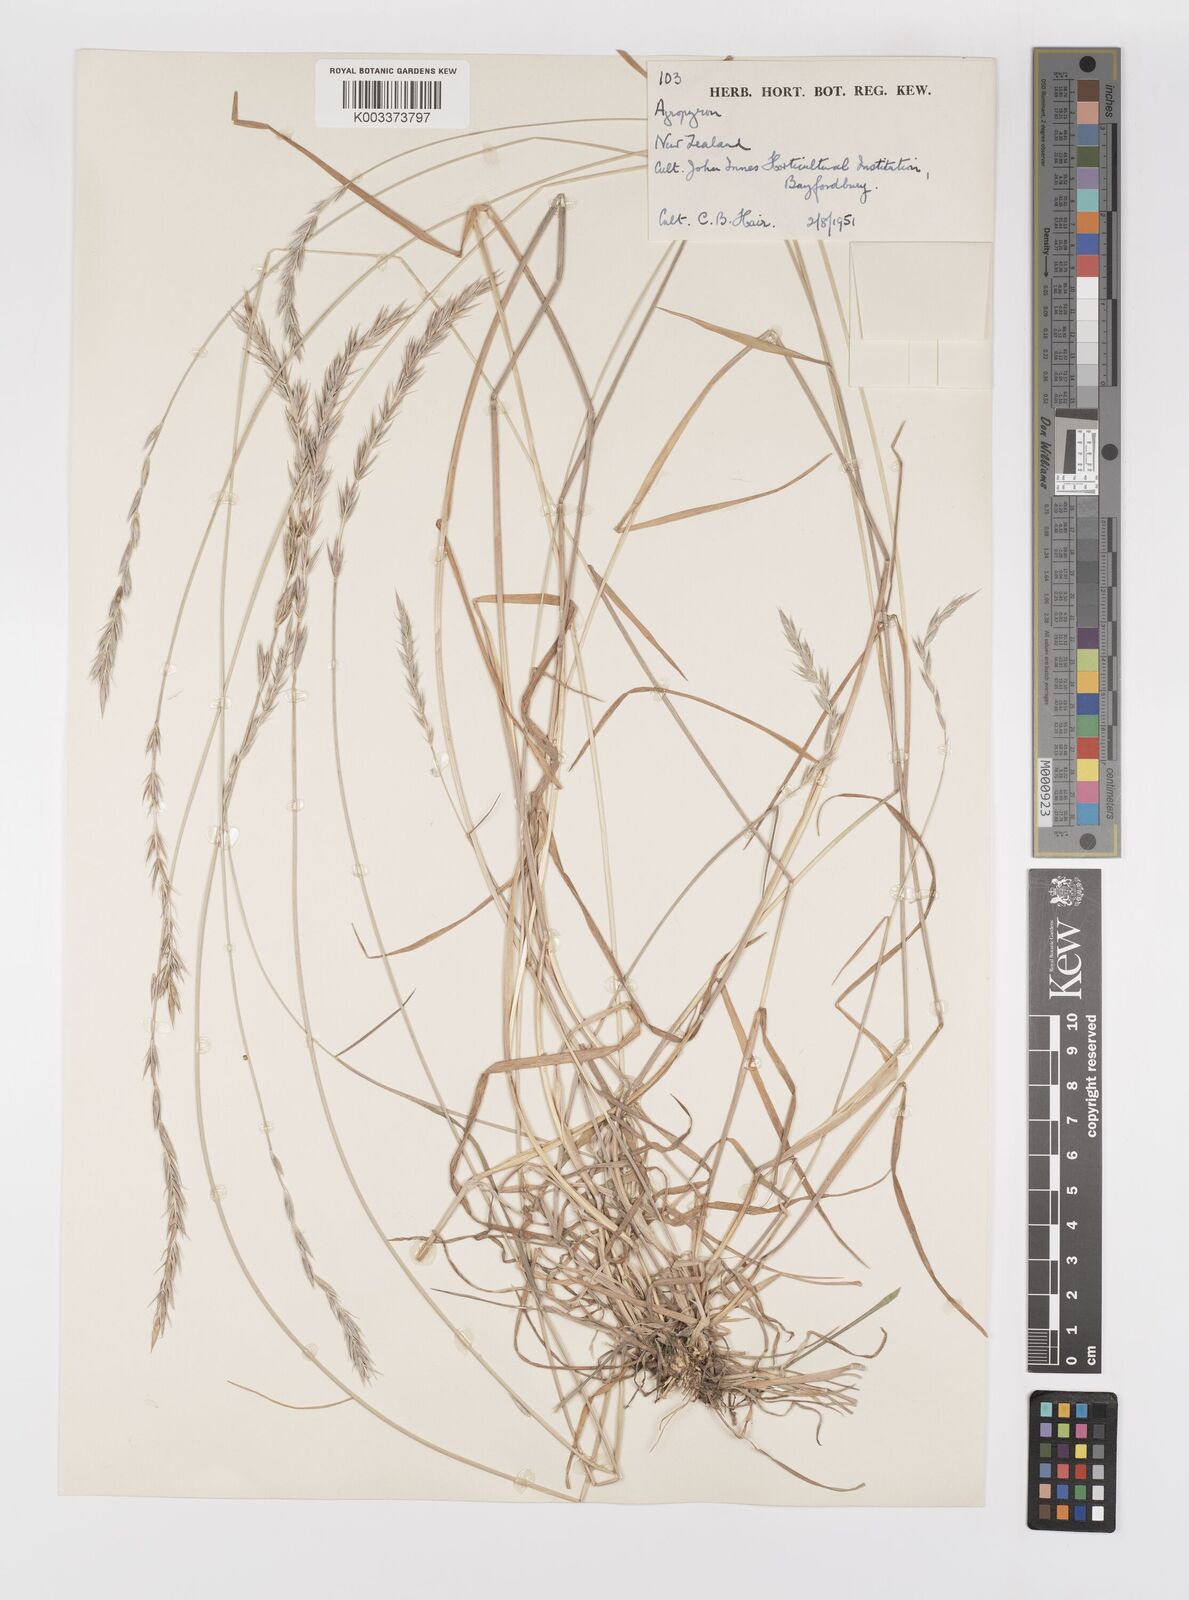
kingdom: Plantae
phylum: Tracheophyta
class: Liliopsida
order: Poales
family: Poaceae
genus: Elymus
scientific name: Elymus
